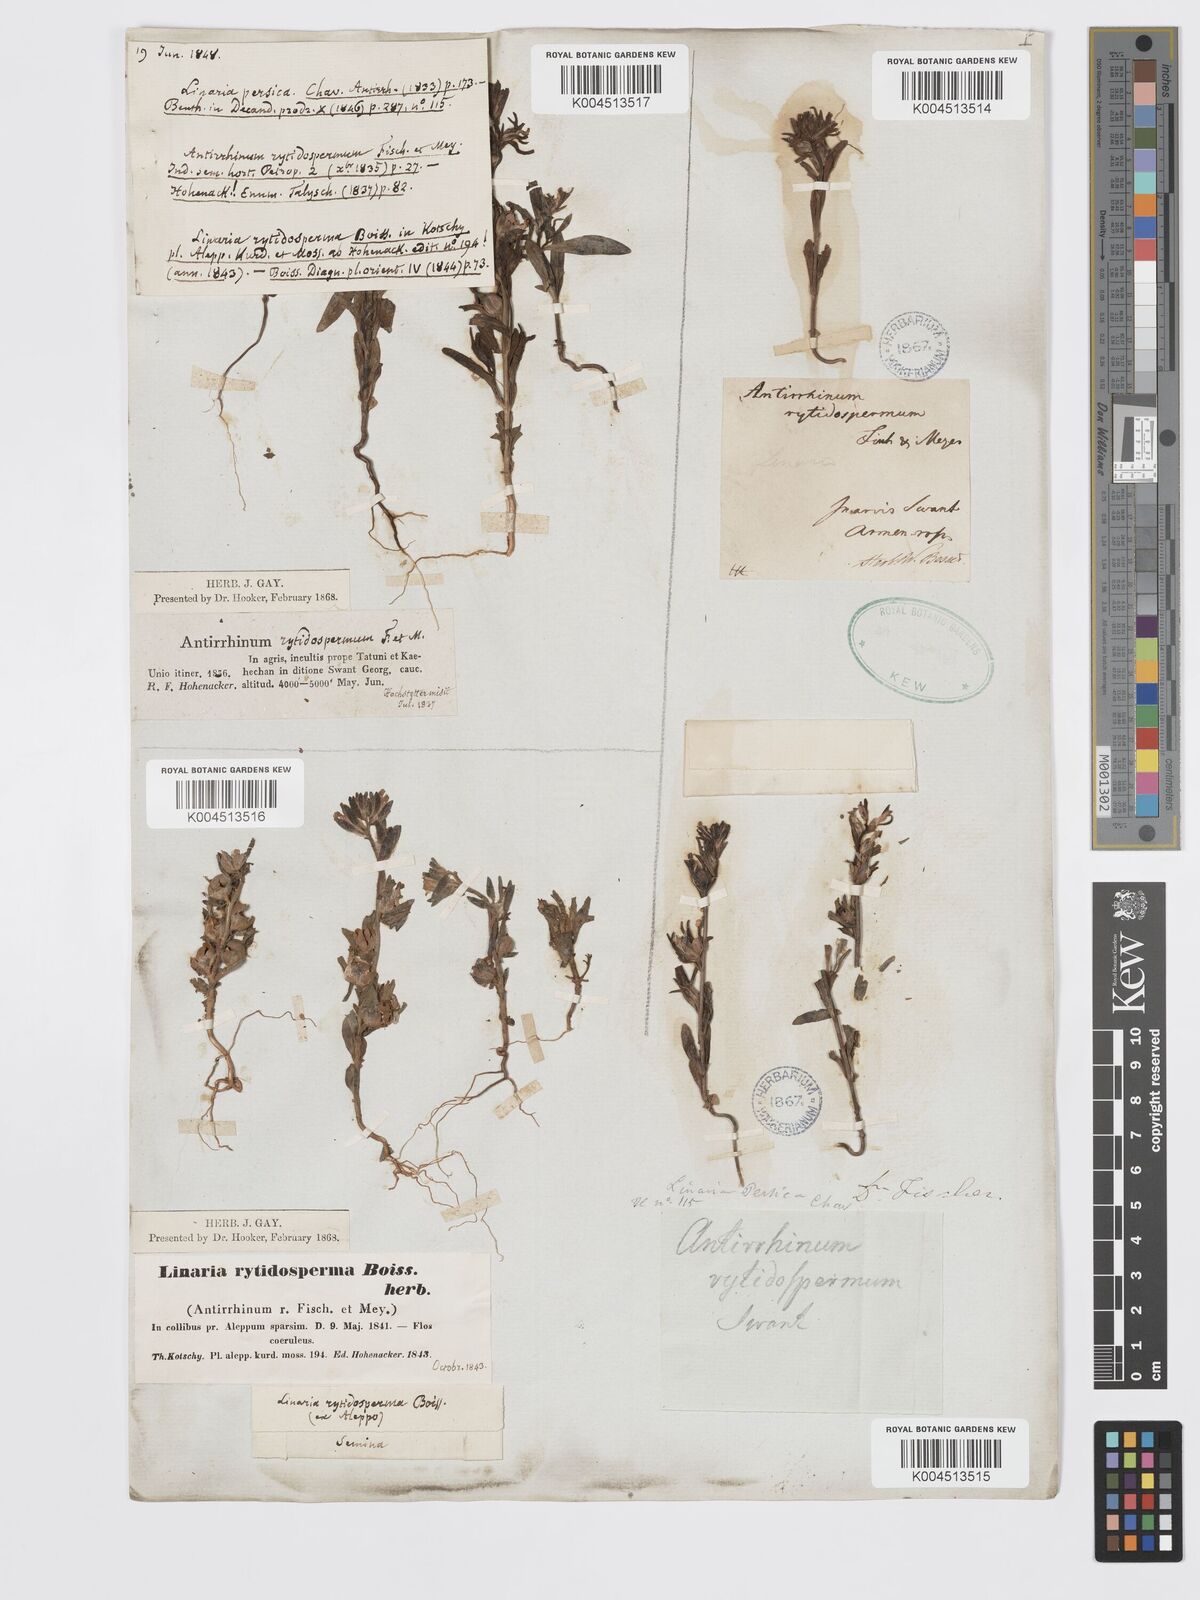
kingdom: Plantae
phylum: Tracheophyta
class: Magnoliopsida
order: Lamiales
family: Plantaginaceae
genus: Chaenorhinum
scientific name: Chaenorhinum calycinum
